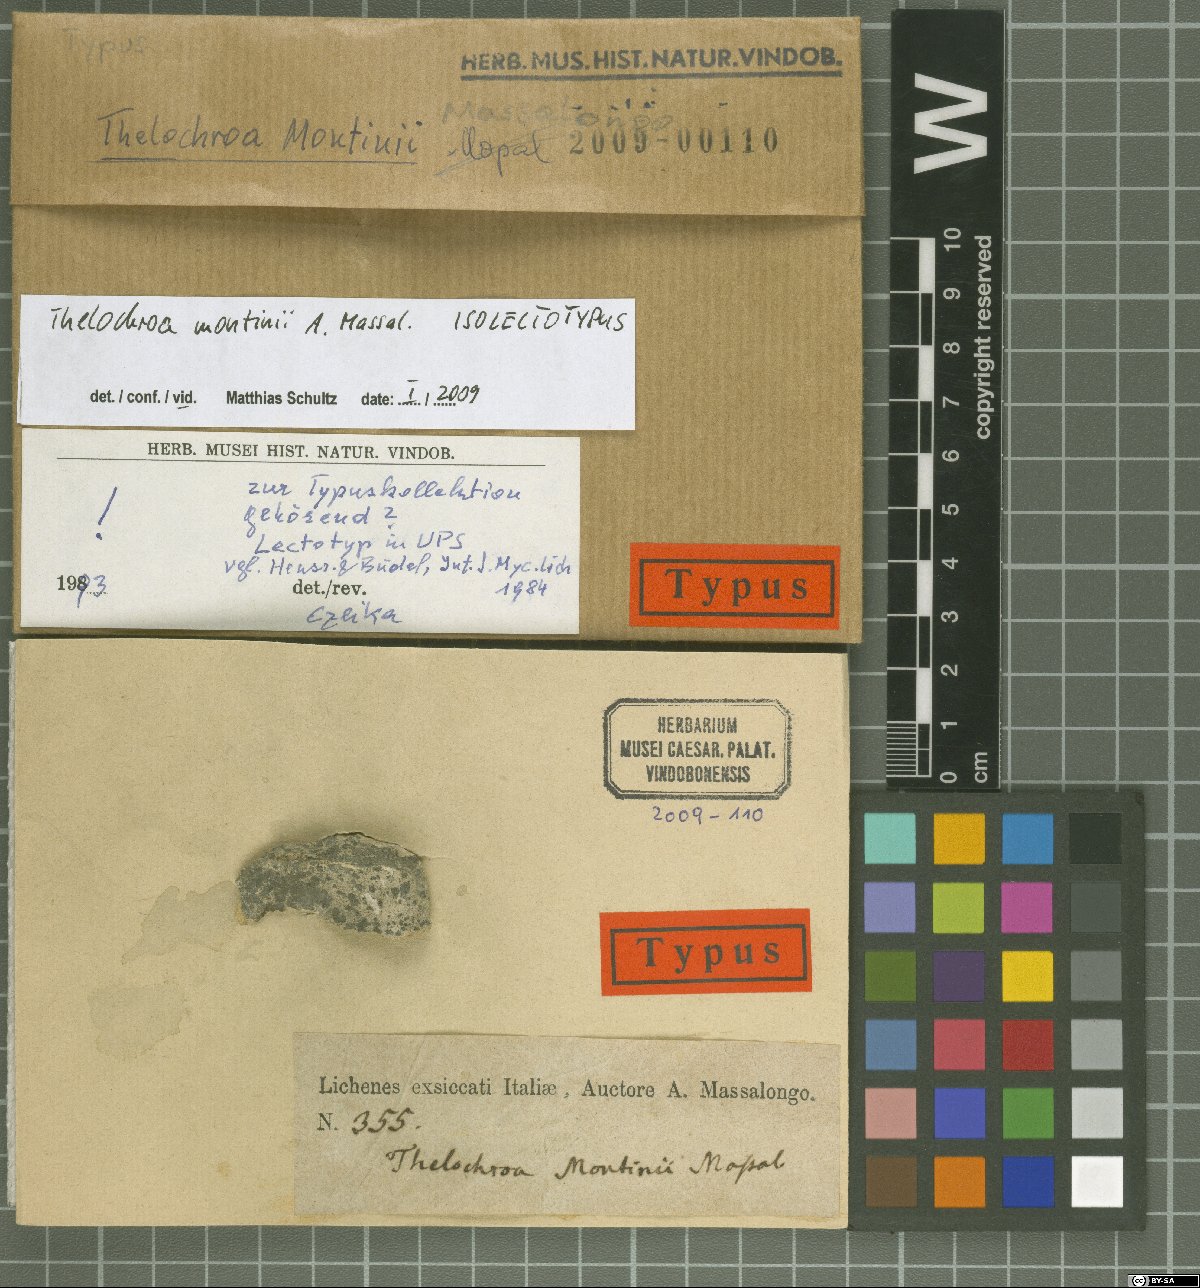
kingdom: Fungi
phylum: Ascomycota
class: Lichinomycetes
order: Lichinales
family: Lichinaceae
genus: Pyrenocarpon
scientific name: Pyrenocarpon Thelochroa montinii
